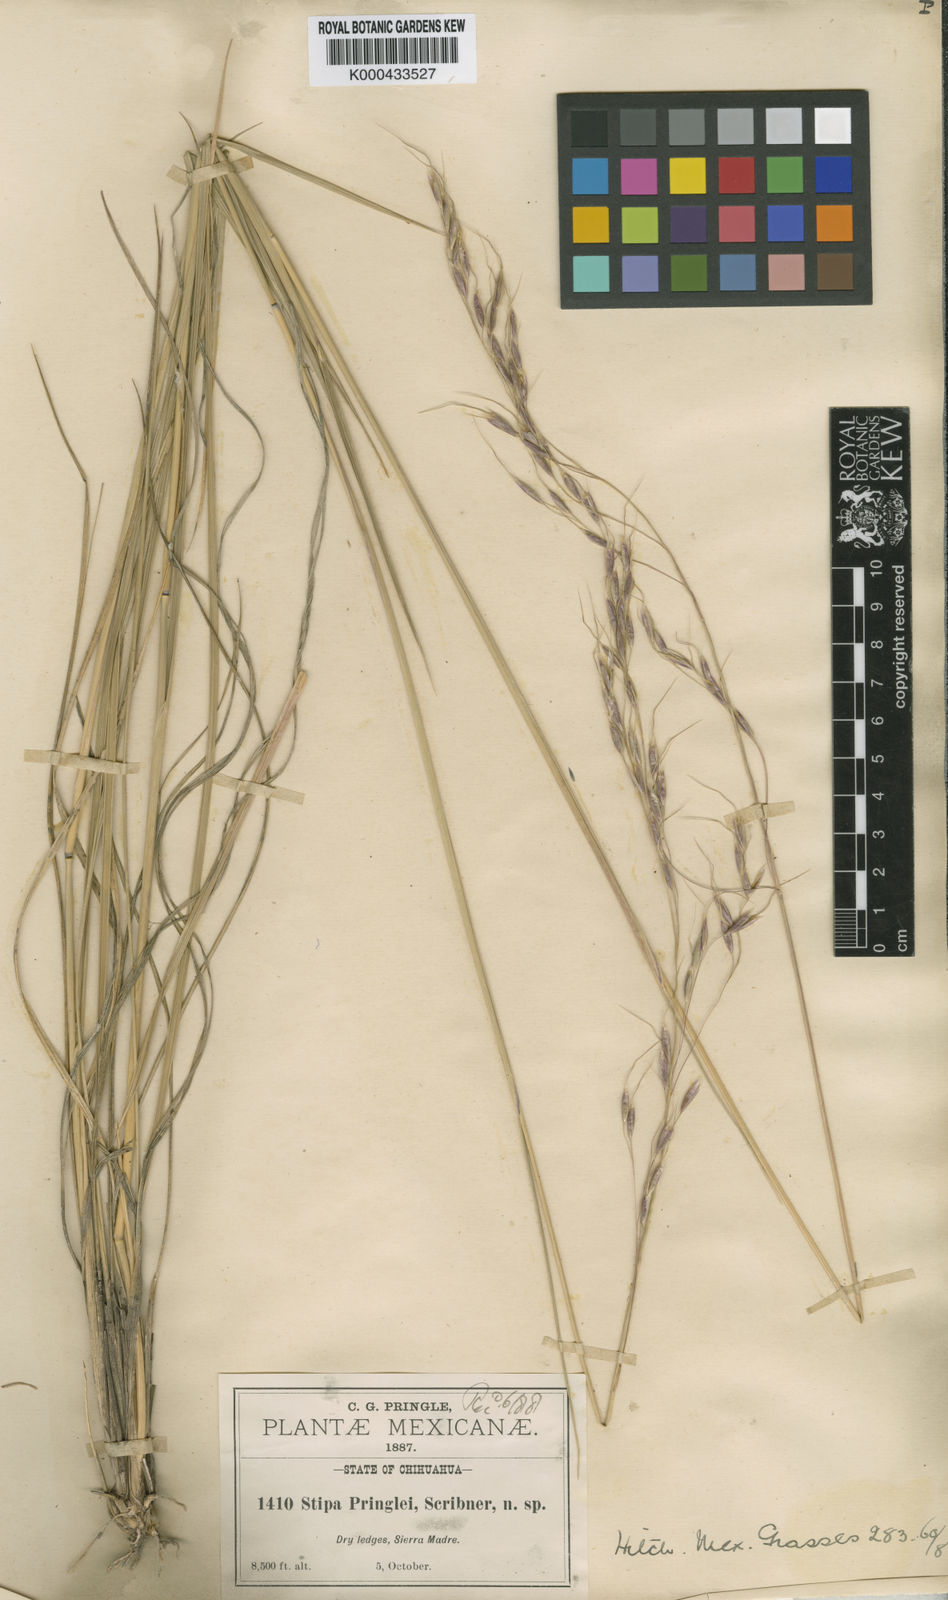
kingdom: Plantae
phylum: Tracheophyta
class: Liliopsida
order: Poales
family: Poaceae
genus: Piptochaetium
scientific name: Piptochaetium pringlei
